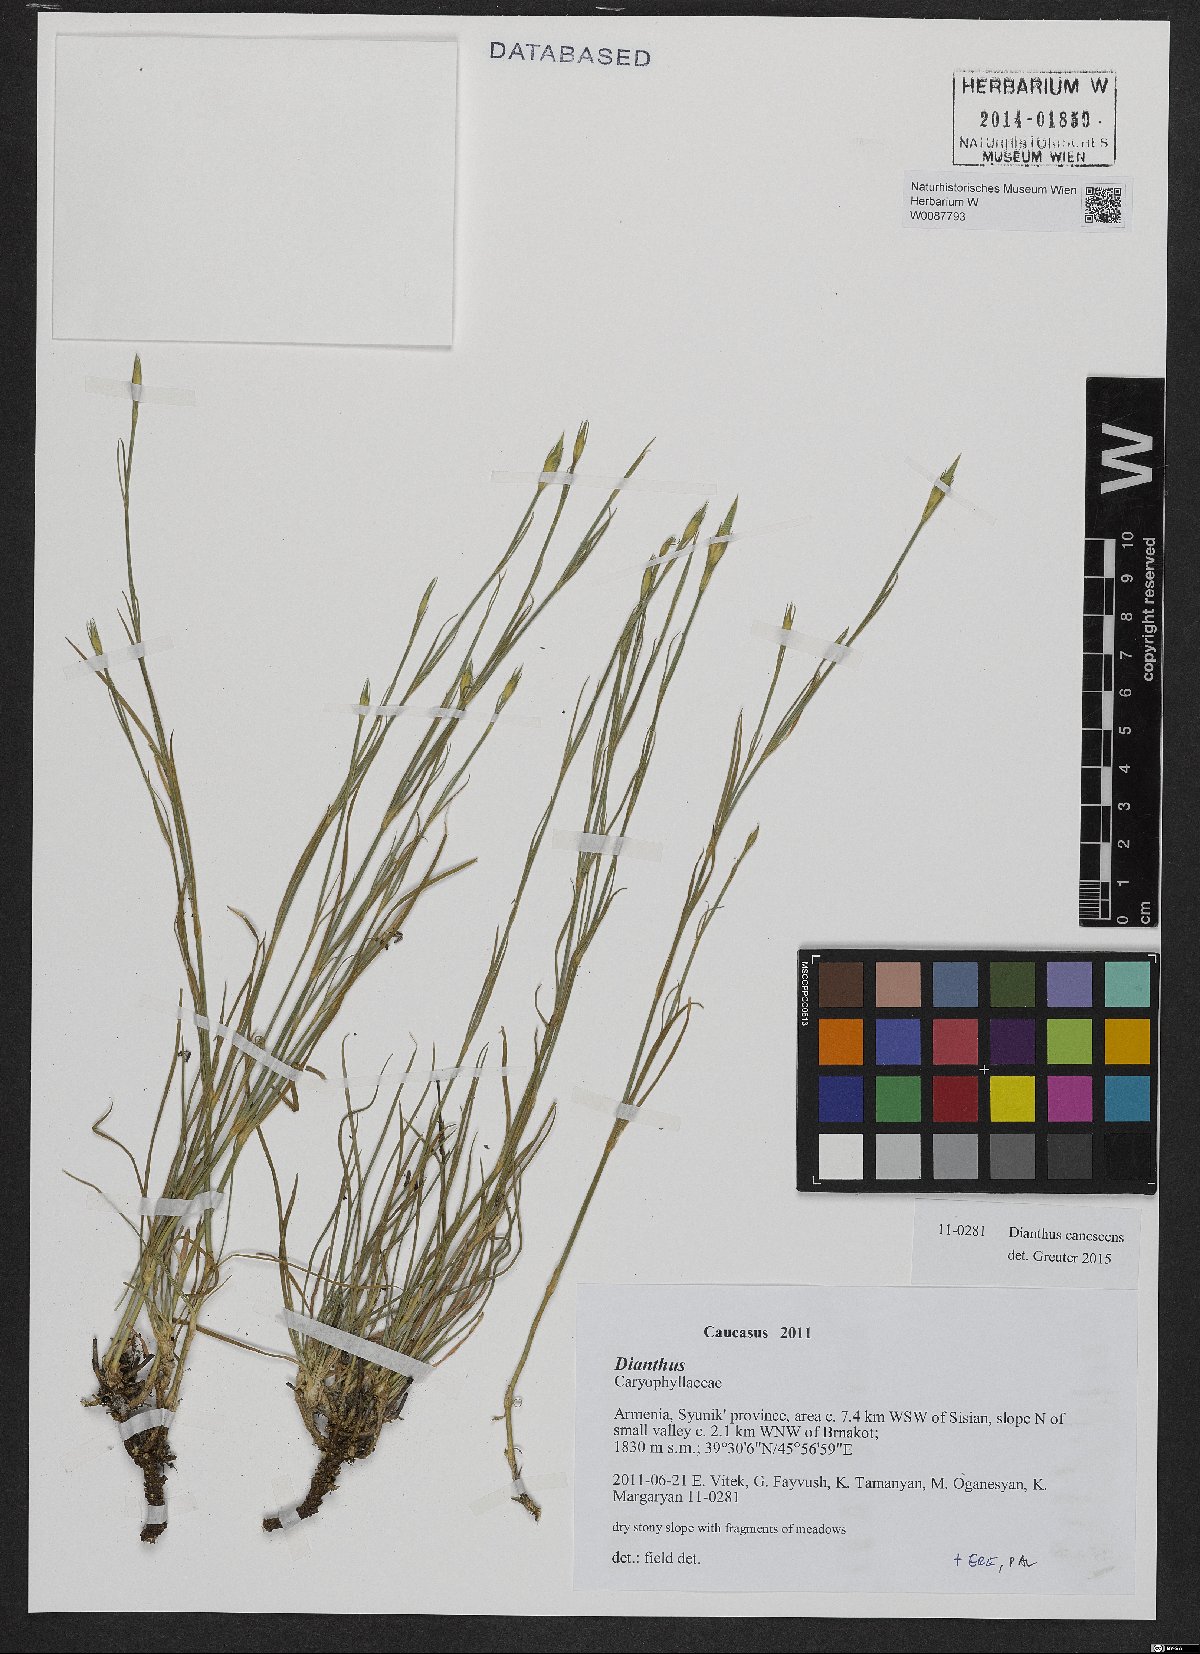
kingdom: Plantae
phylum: Tracheophyta
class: Magnoliopsida
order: Caryophyllales
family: Caryophyllaceae
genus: Dianthus
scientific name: Dianthus orientalis
